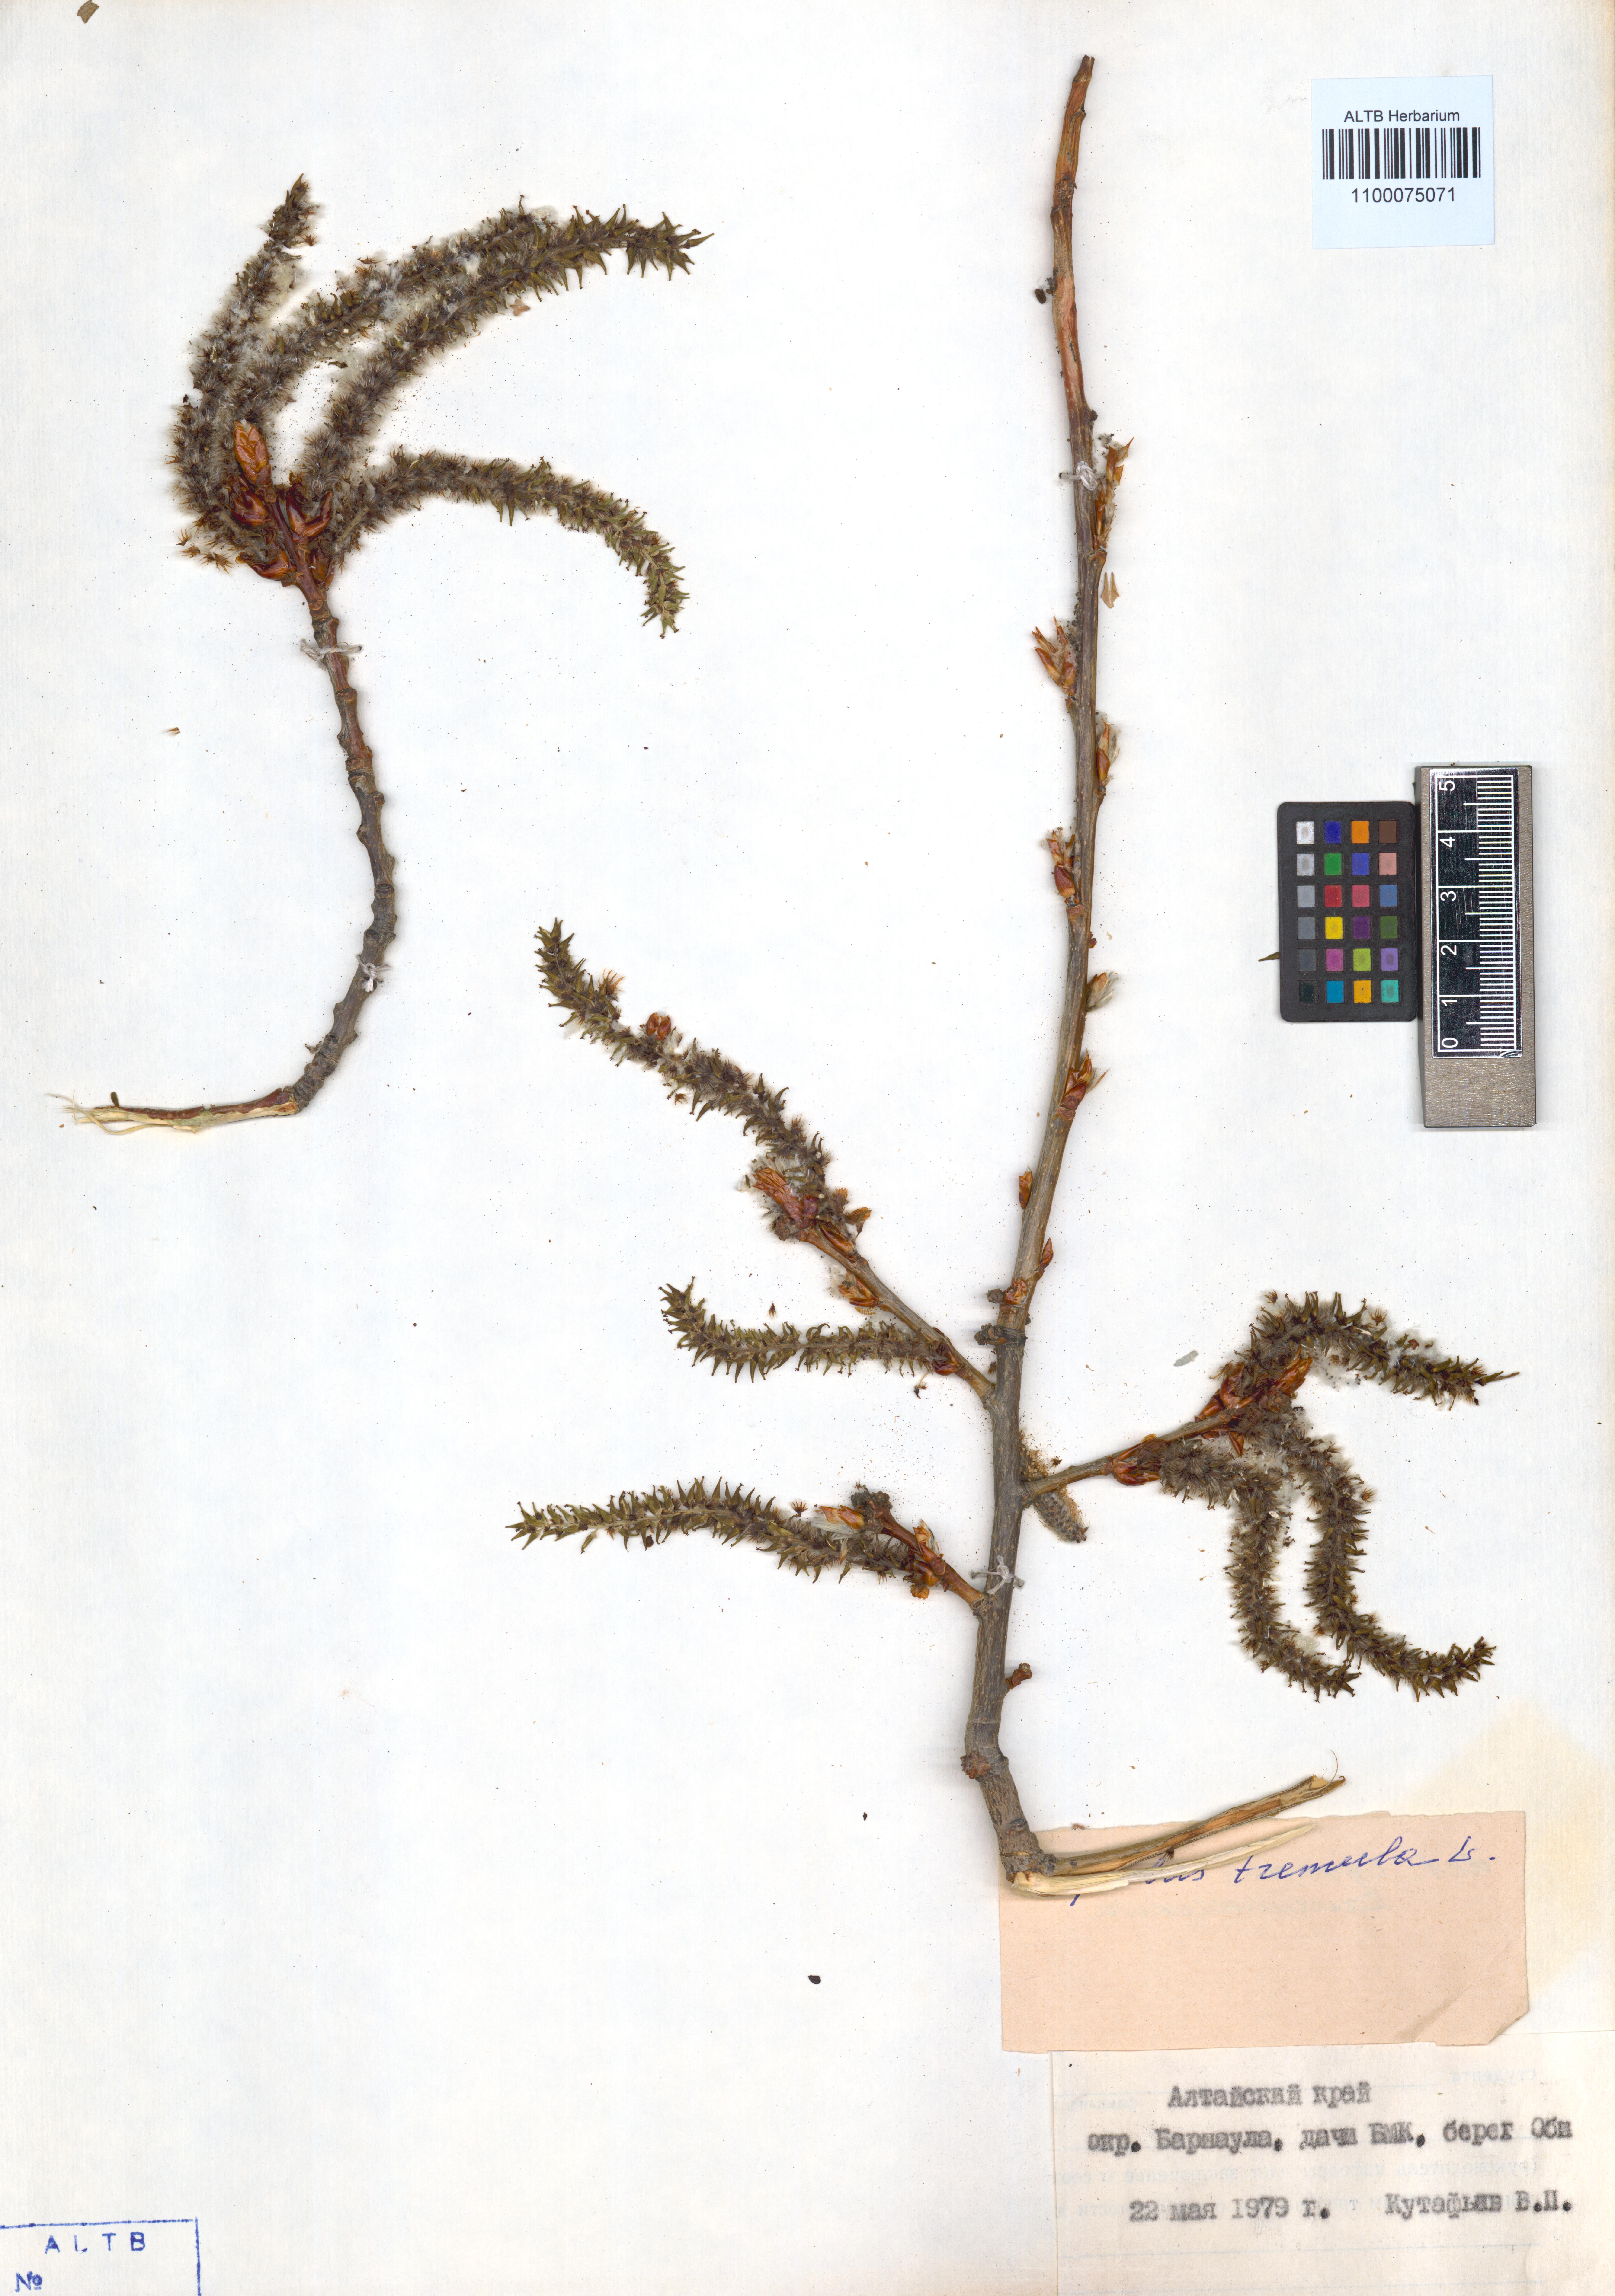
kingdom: Plantae
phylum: Tracheophyta
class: Magnoliopsida
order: Malpighiales
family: Salicaceae
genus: Populus
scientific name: Populus tremula
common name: European aspen
